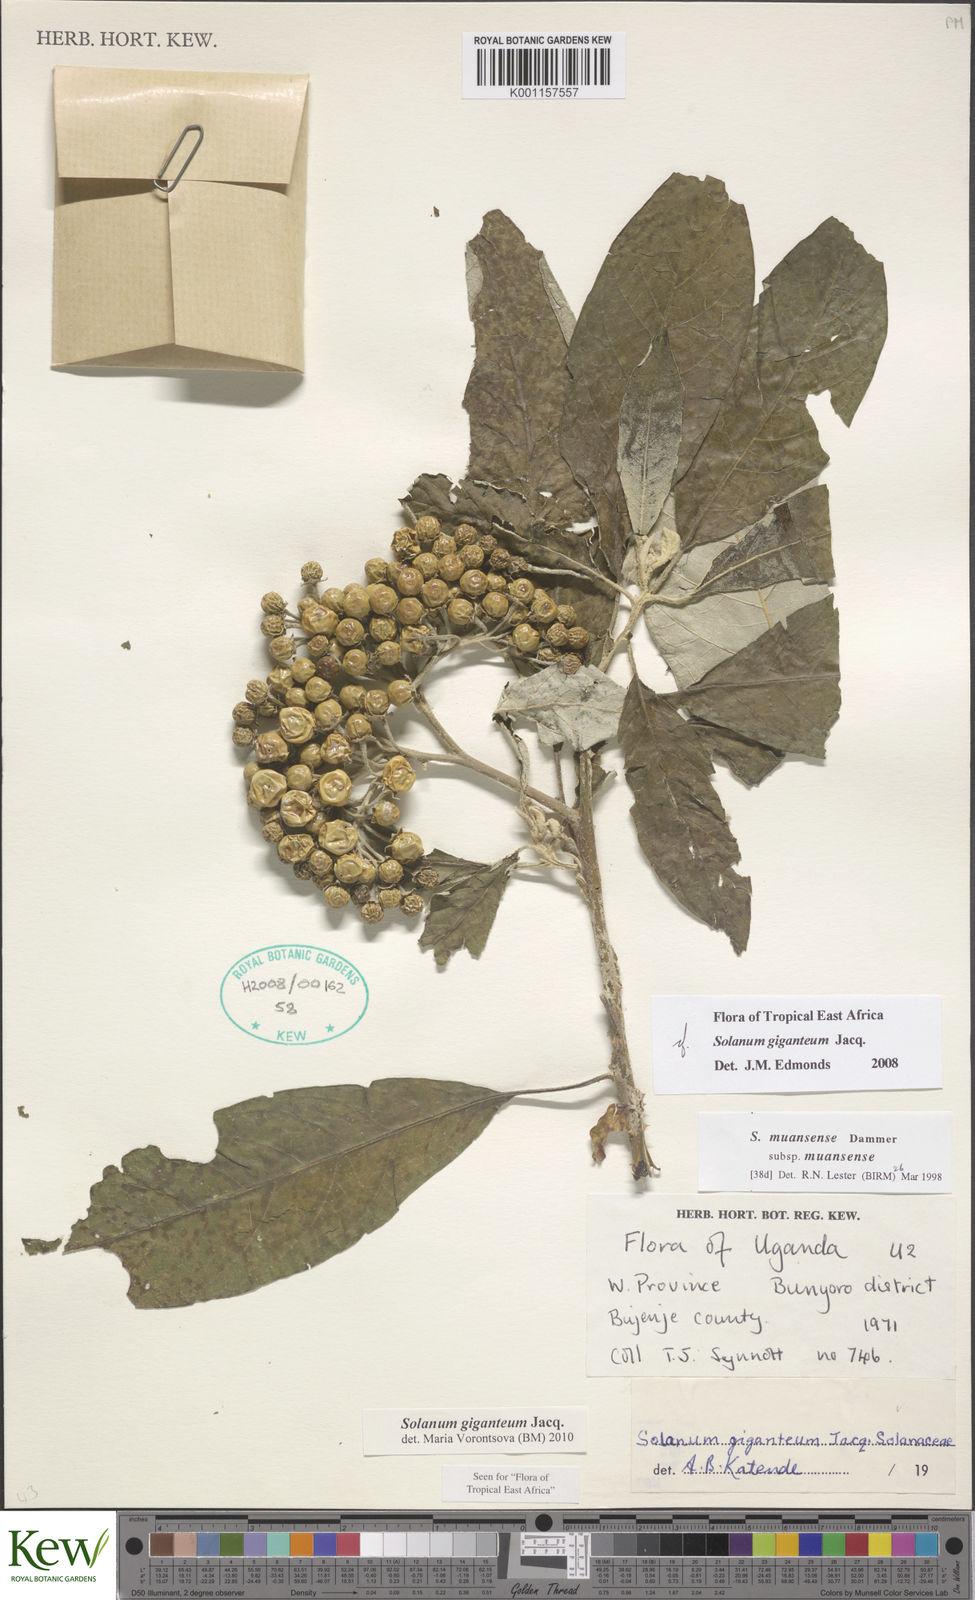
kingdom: Plantae
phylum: Tracheophyta
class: Magnoliopsida
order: Solanales
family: Solanaceae
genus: Solanum
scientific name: Solanum giganteum
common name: Healing-leaf-tree
